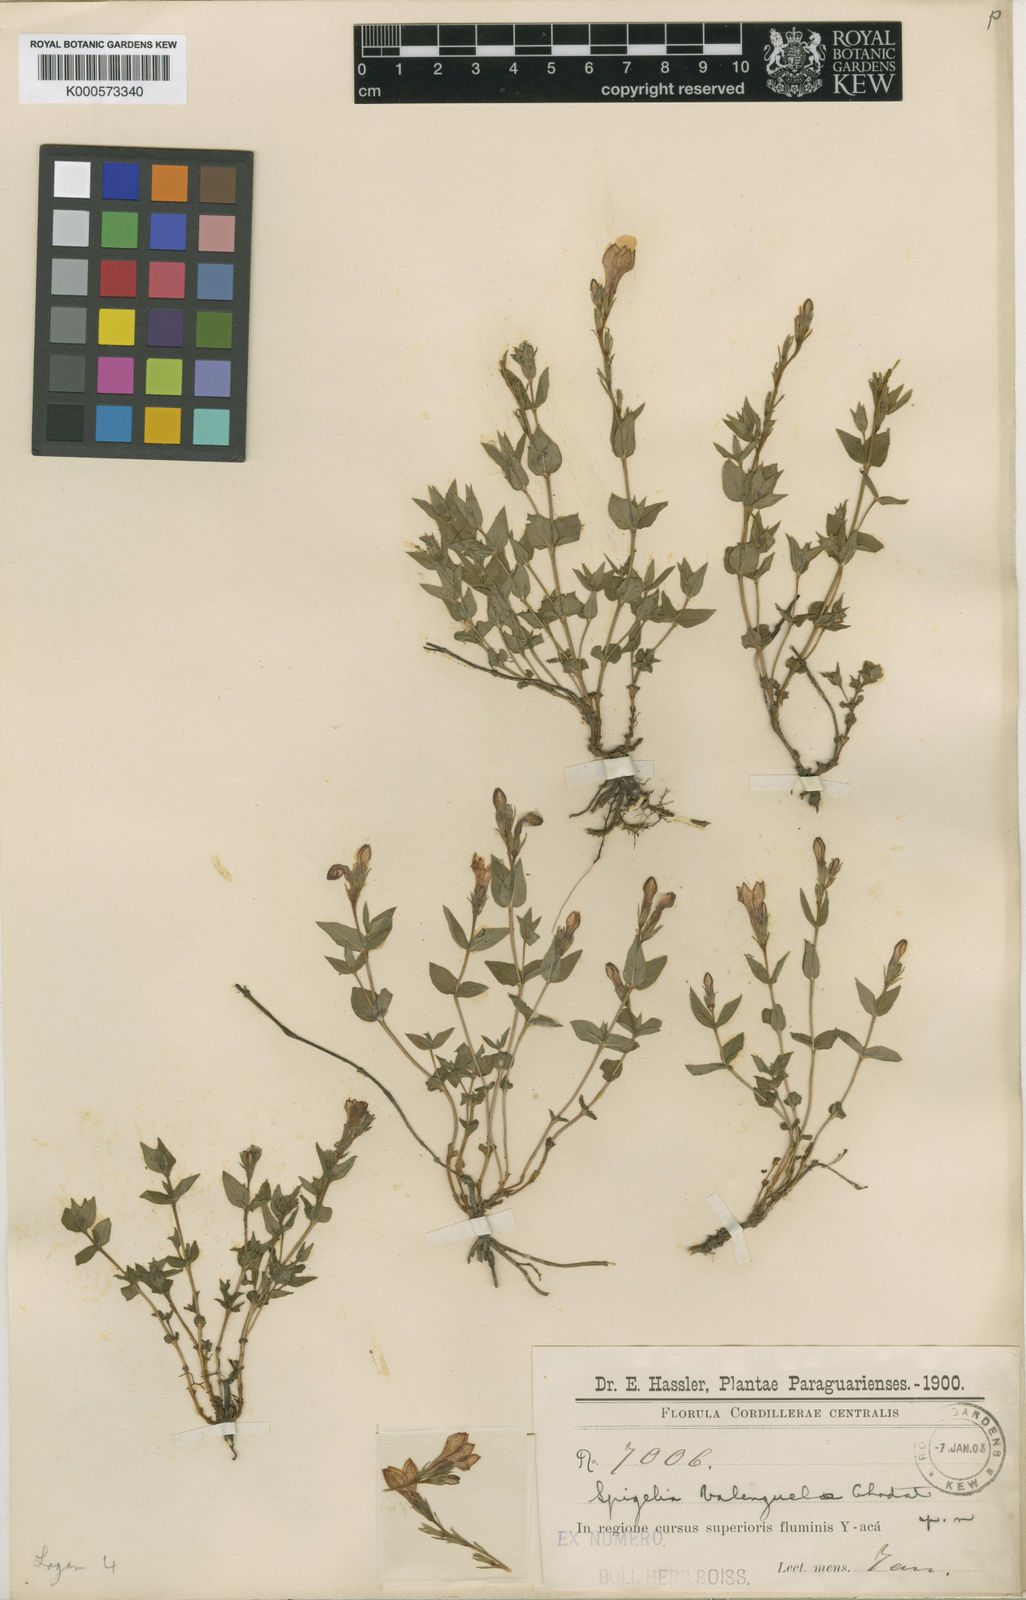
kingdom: Plantae
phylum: Tracheophyta
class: Magnoliopsida
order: Gentianales
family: Loganiaceae
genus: Spigelia
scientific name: Spigelia valenzuelae
